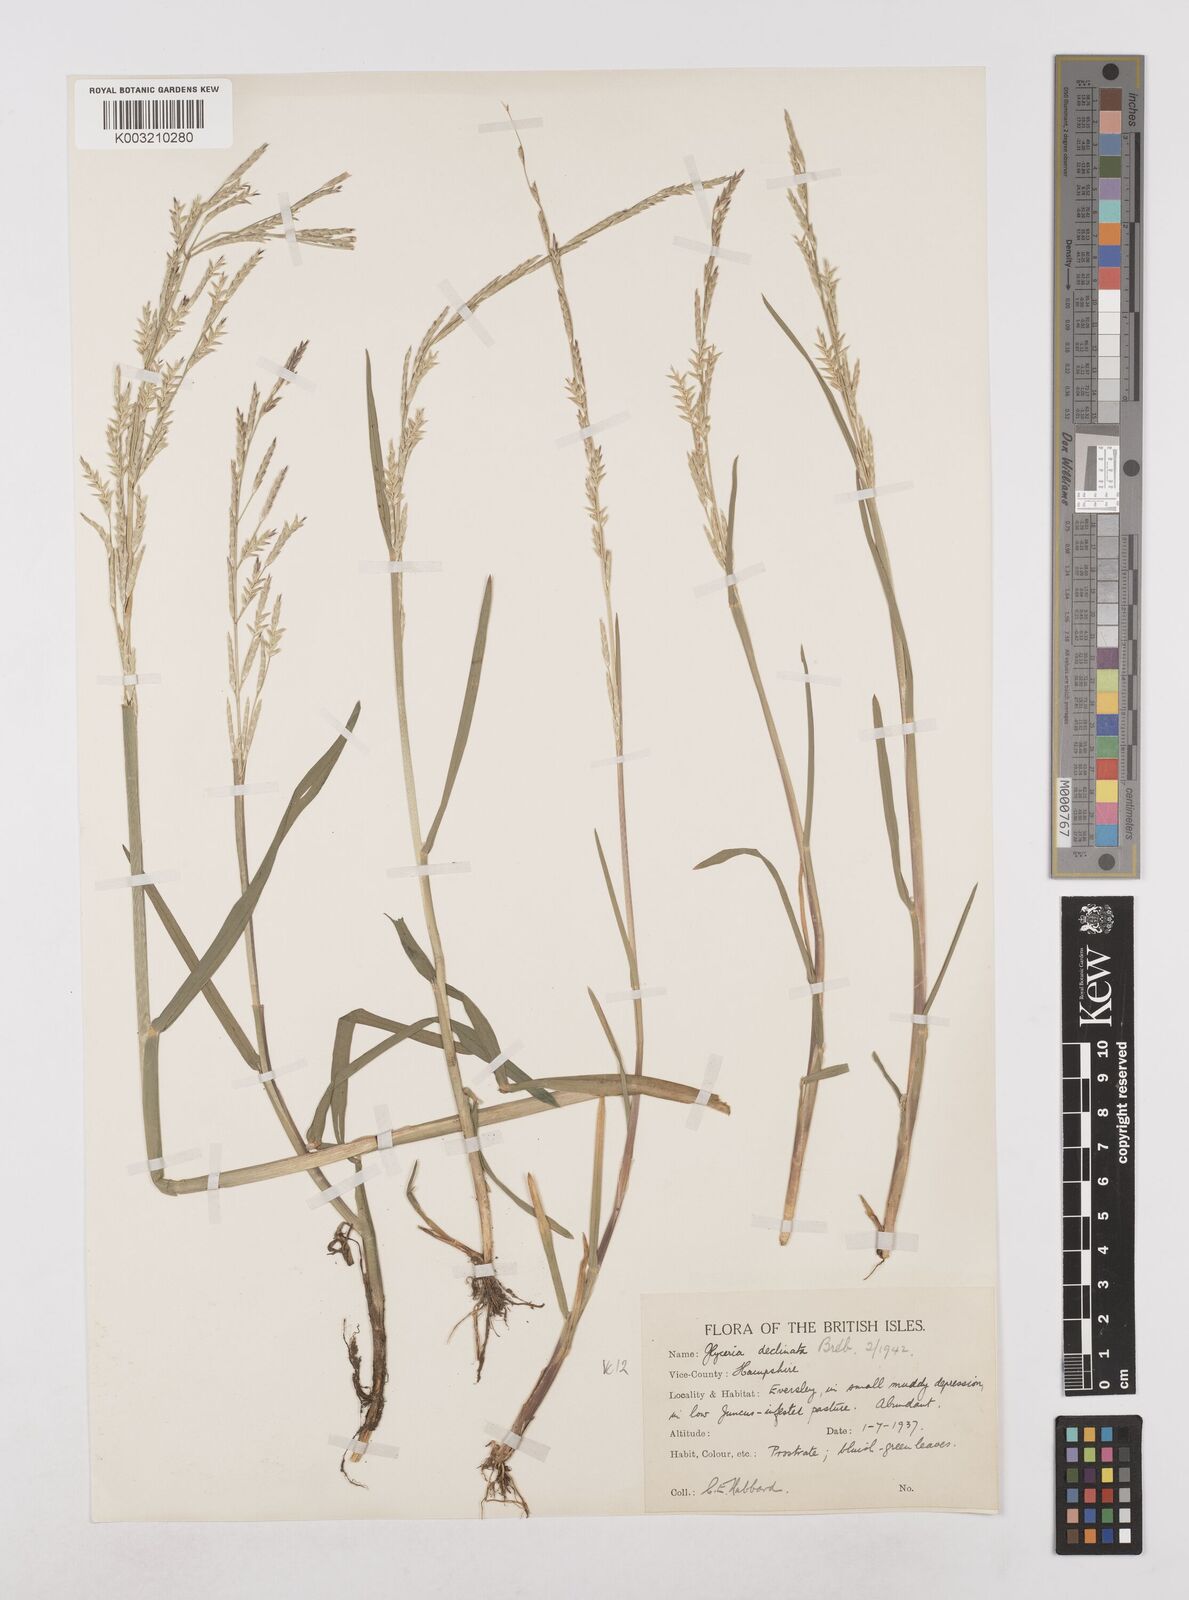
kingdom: Plantae
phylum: Tracheophyta
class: Liliopsida
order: Poales
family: Poaceae
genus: Glyceria
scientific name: Glyceria declinata
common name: Small sweet-grass
